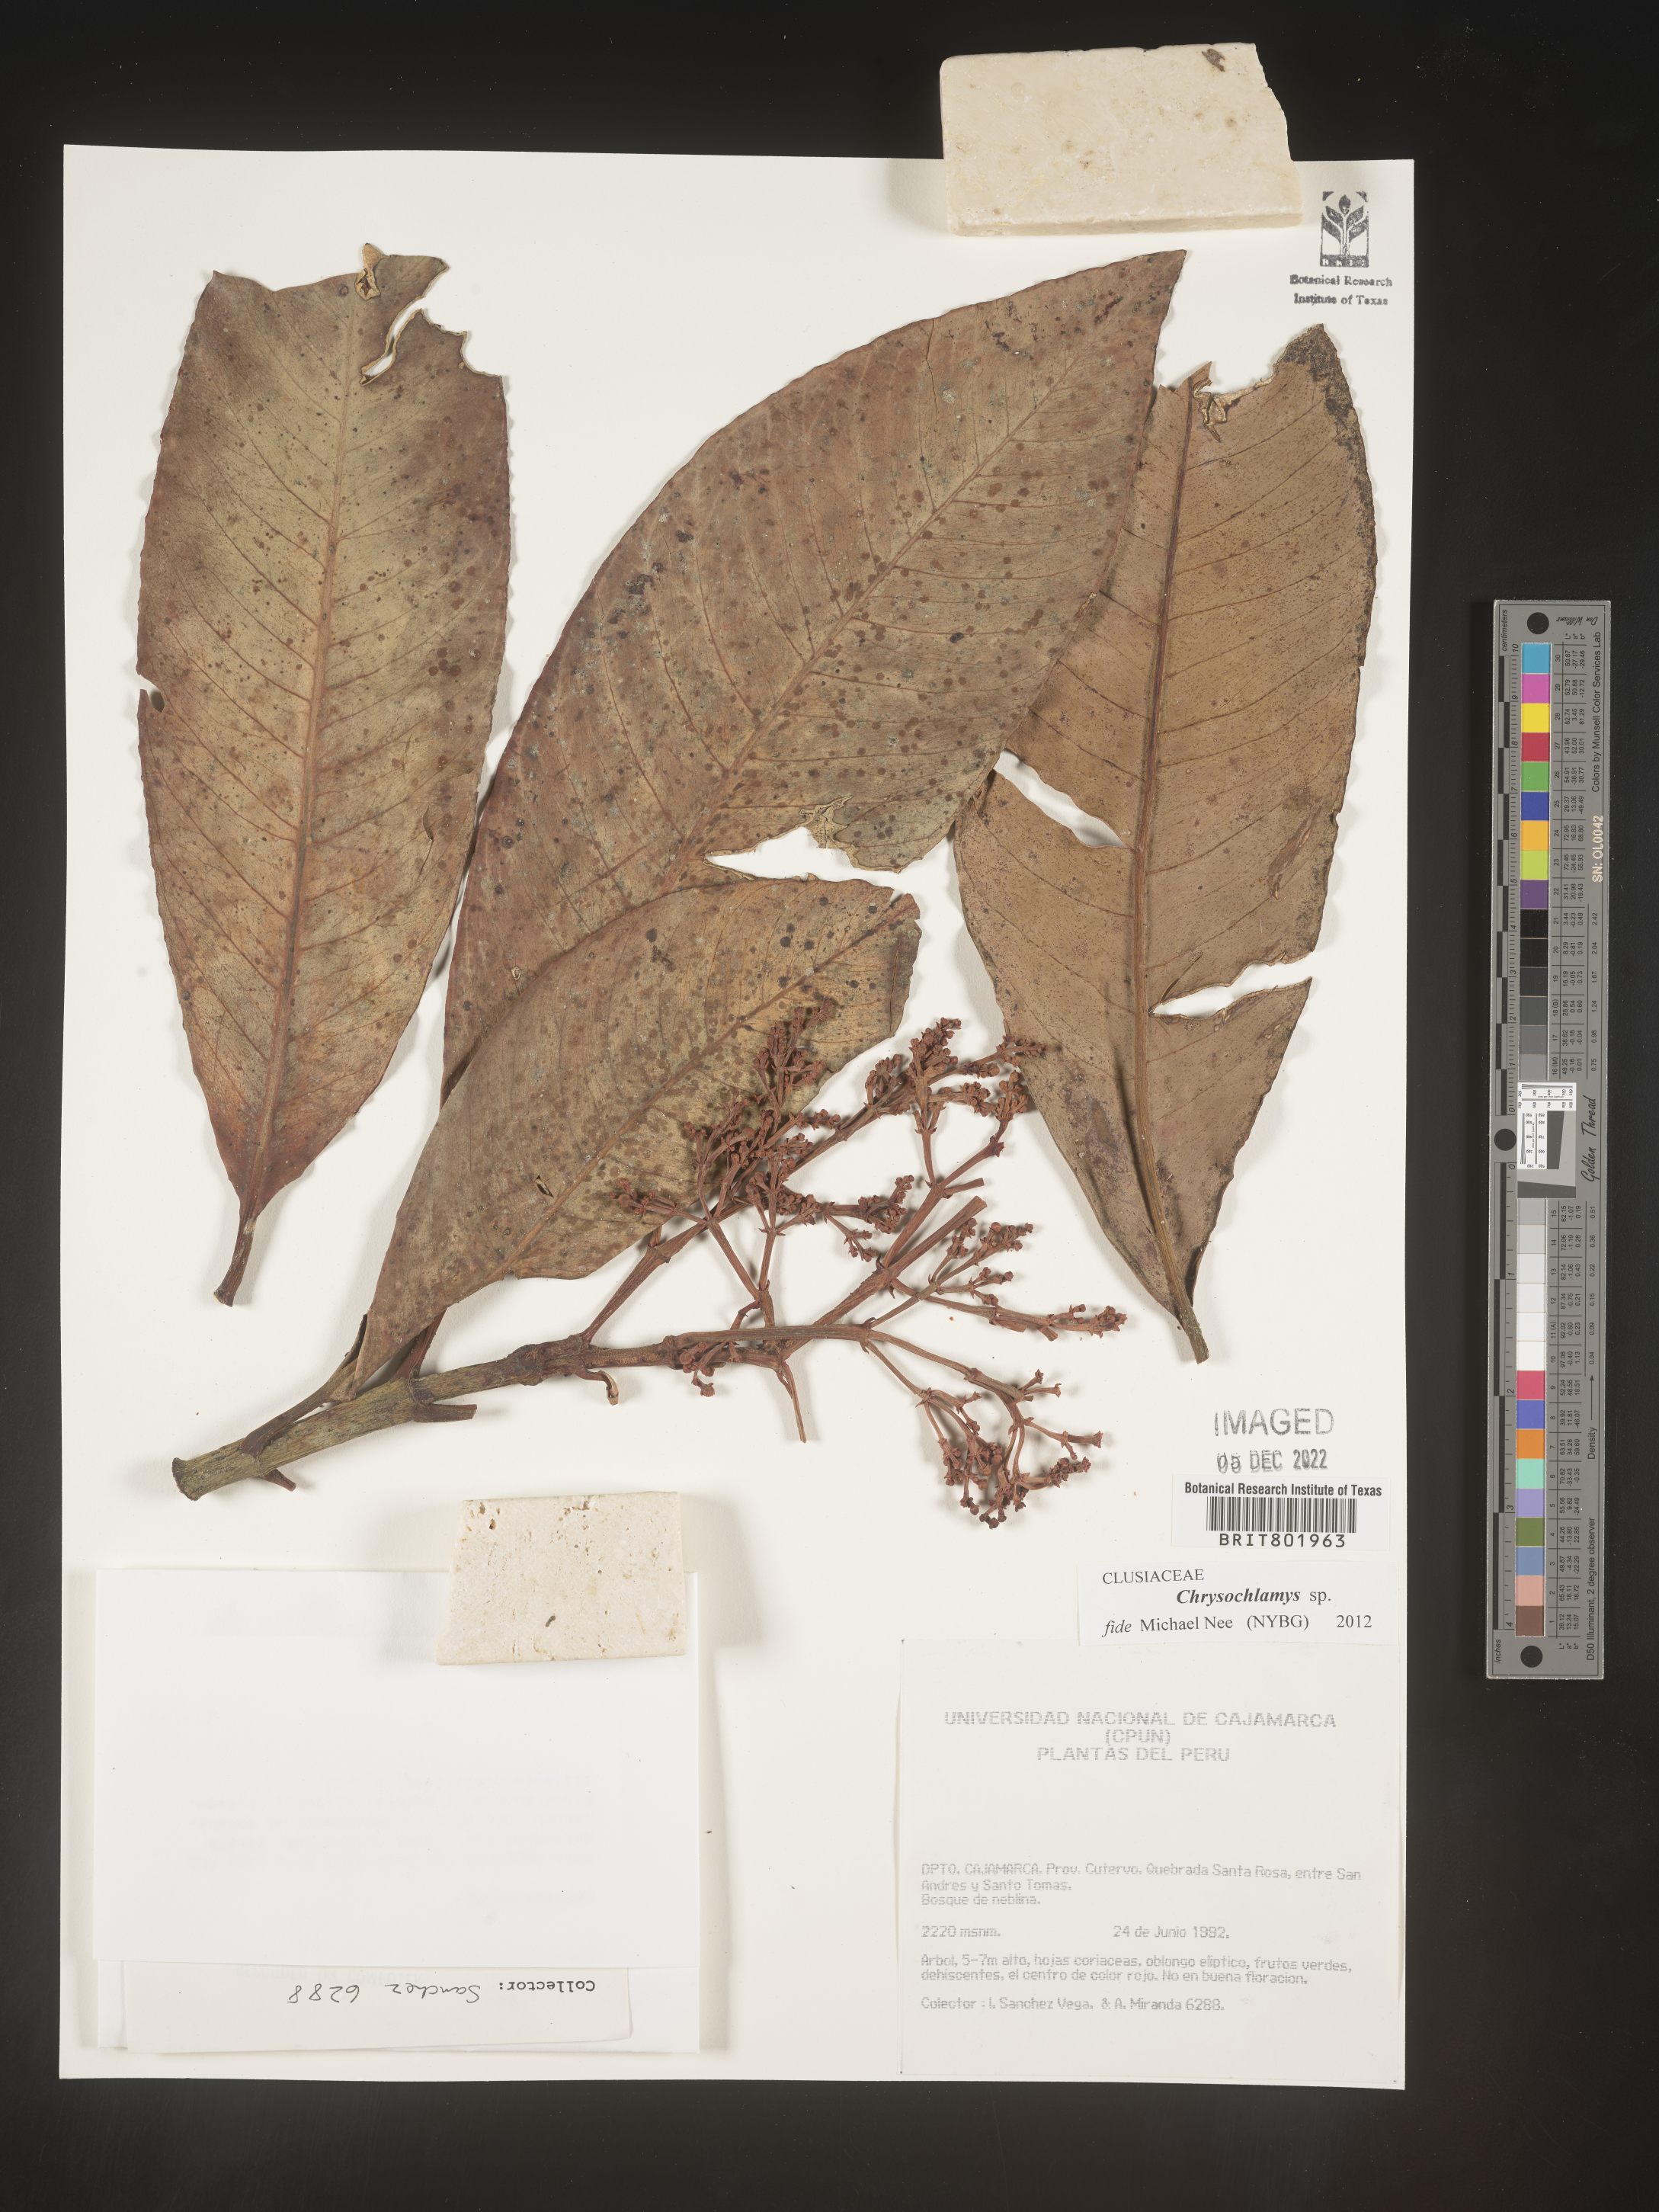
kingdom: Plantae
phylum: Tracheophyta
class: Magnoliopsida
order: Malpighiales
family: Clusiaceae
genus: Chrysochlamys
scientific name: Chrysochlamys
